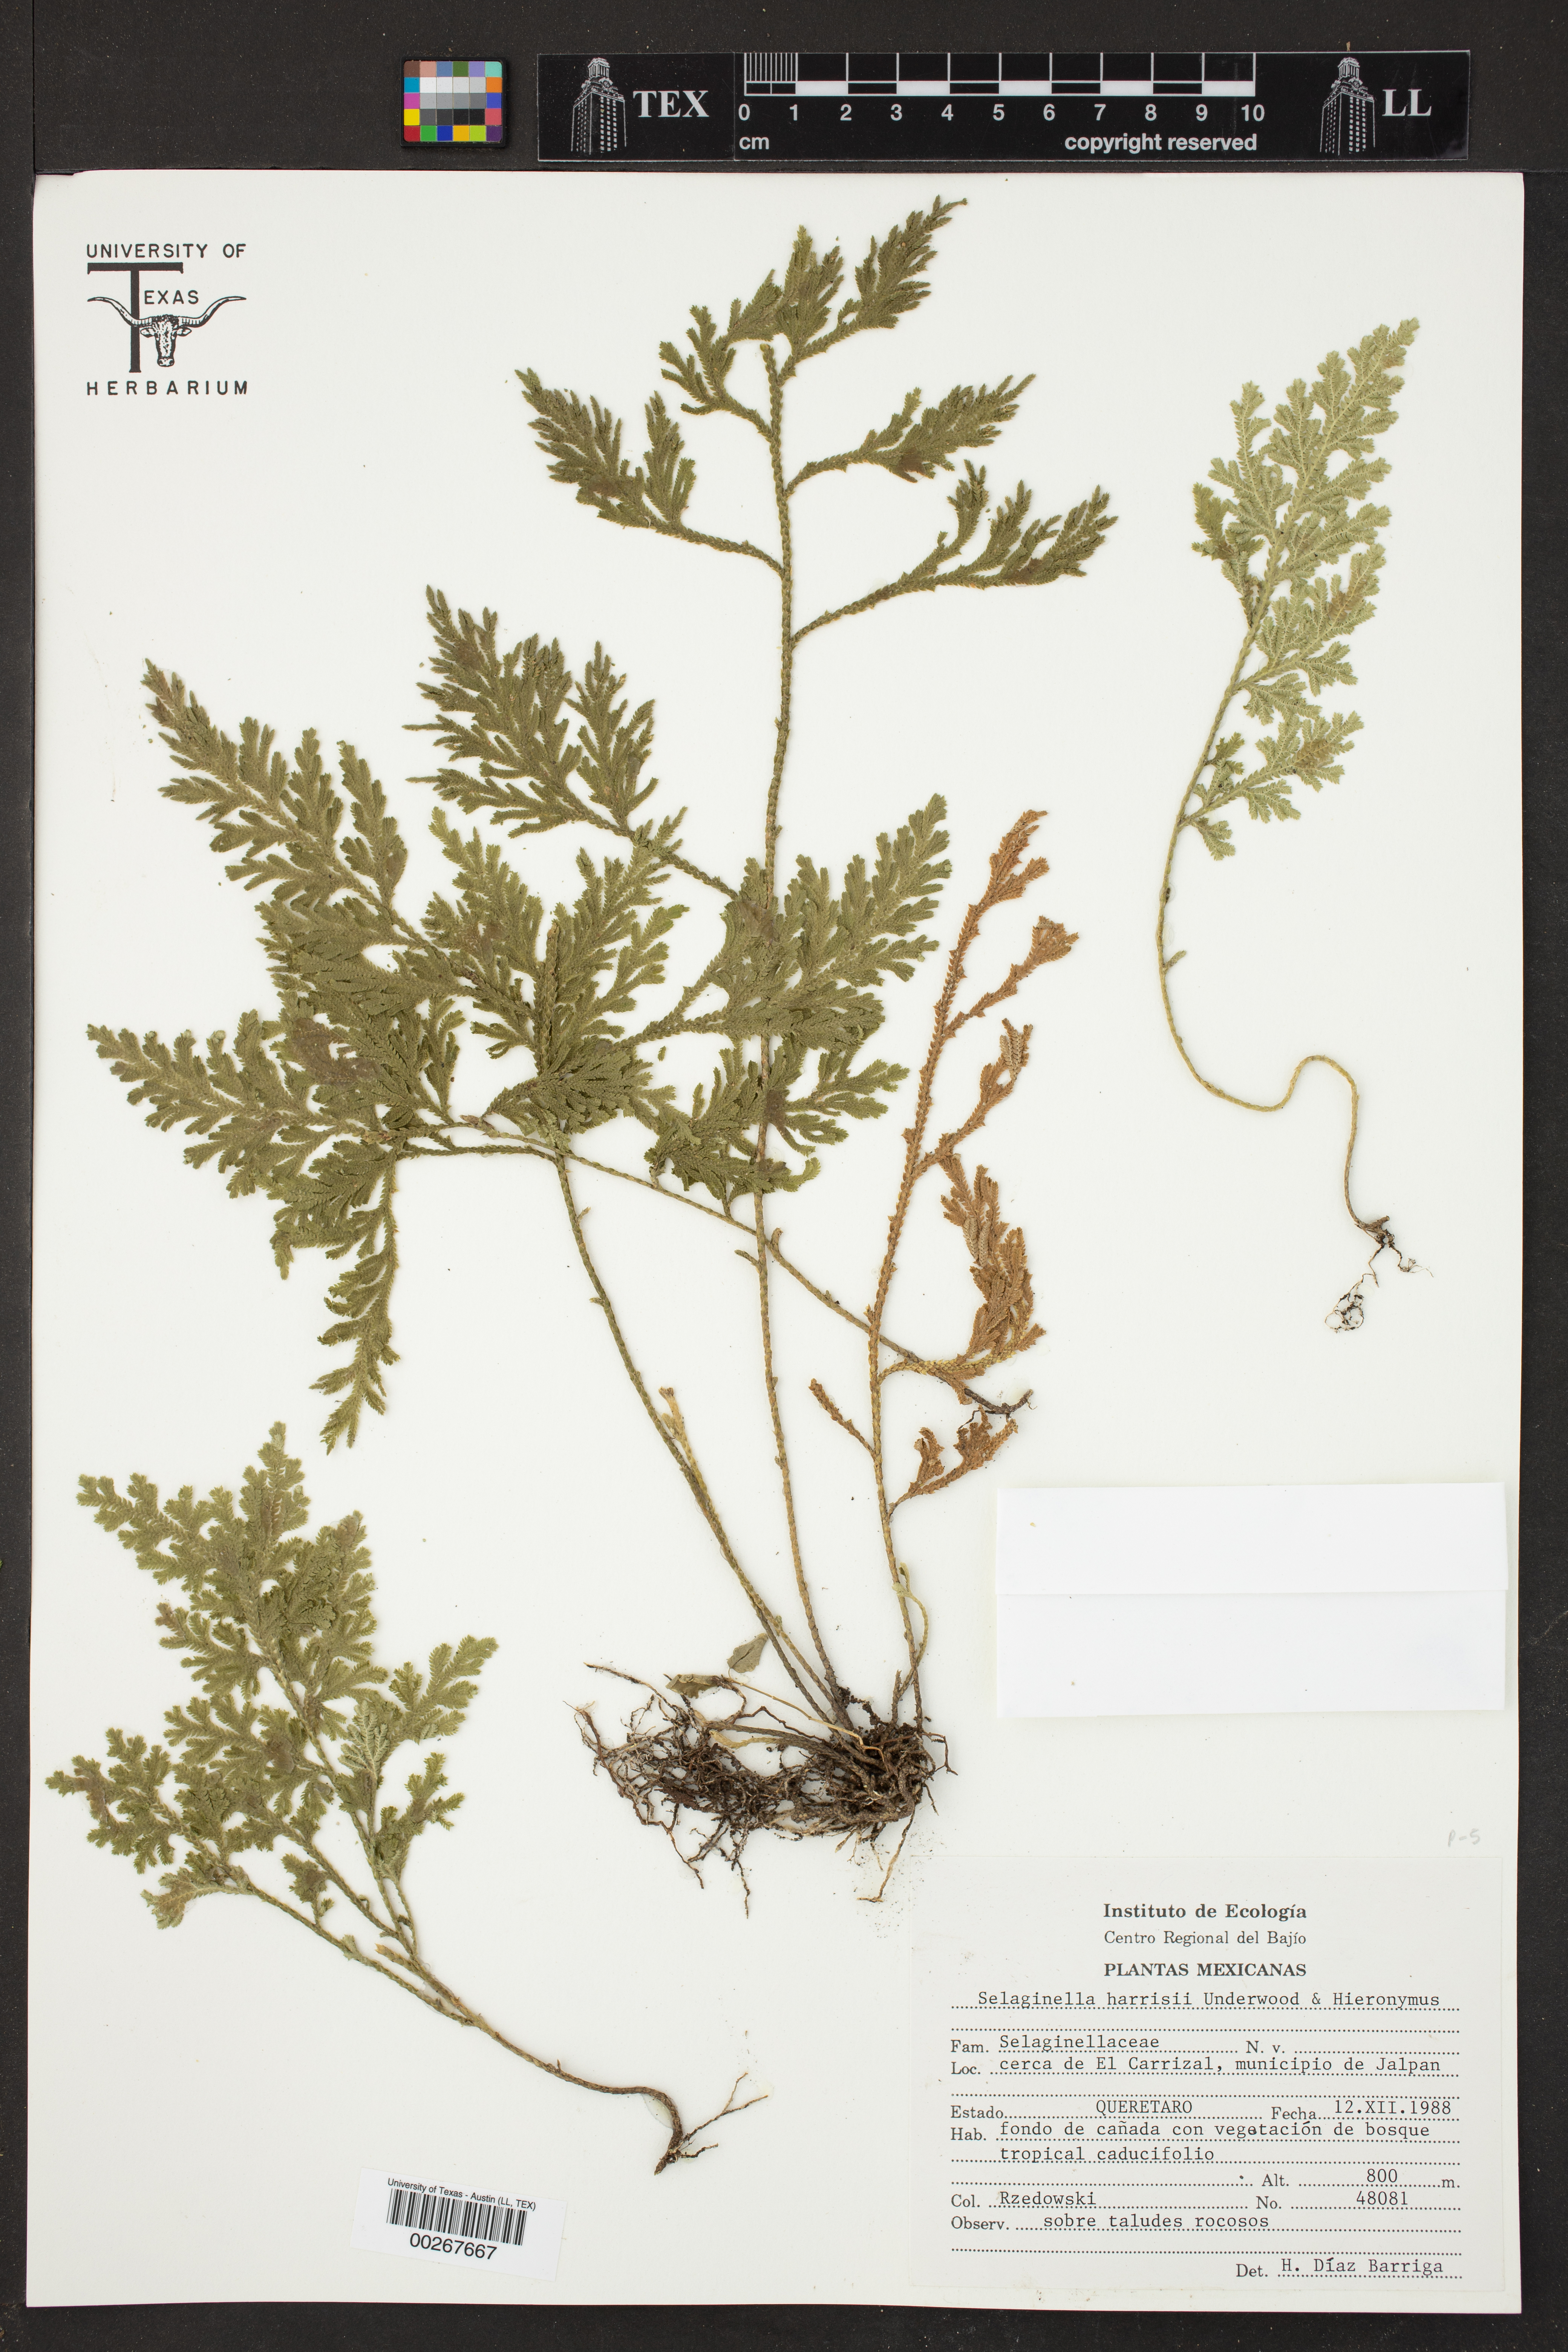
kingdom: Plantae
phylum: Tracheophyta
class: Lycopodiopsida
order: Selaginellales
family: Selaginellaceae
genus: Selaginella
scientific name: Selaginella harrisii
